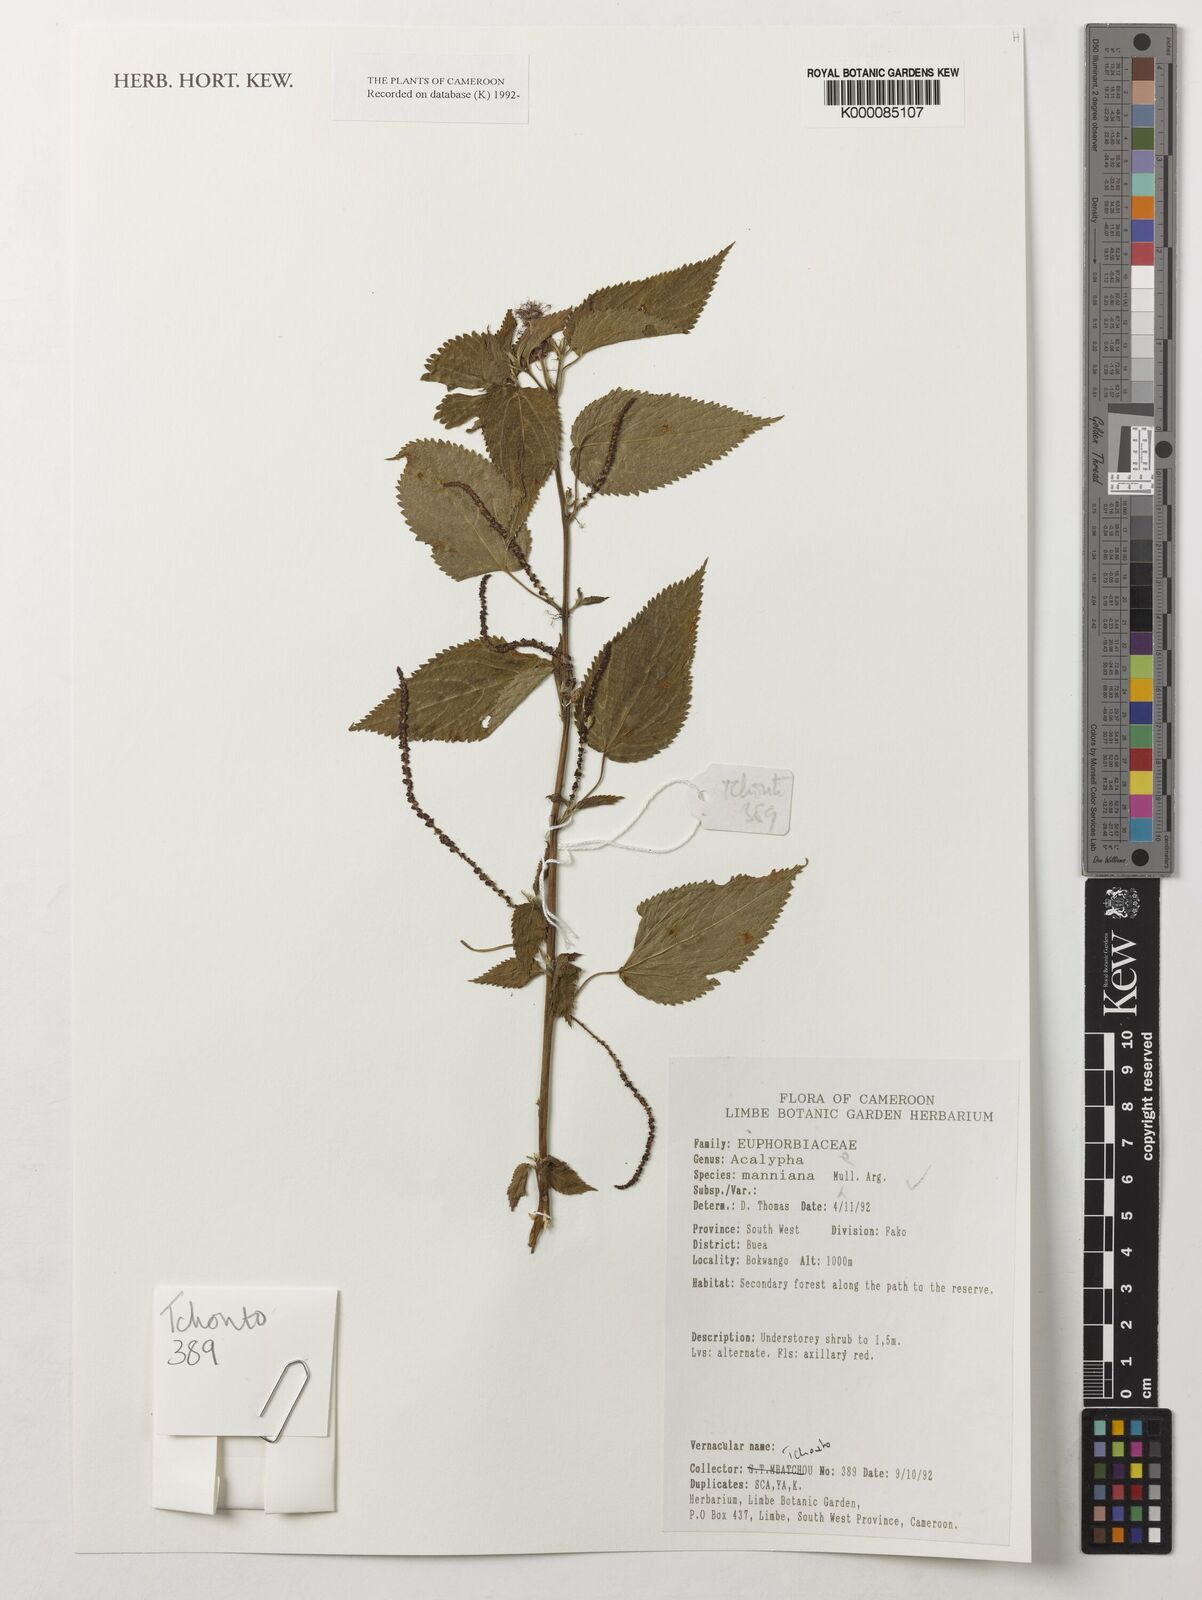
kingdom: Plantae
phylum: Tracheophyta
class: Magnoliopsida
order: Malpighiales
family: Euphorbiaceae
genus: Acalypha
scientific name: Acalypha
